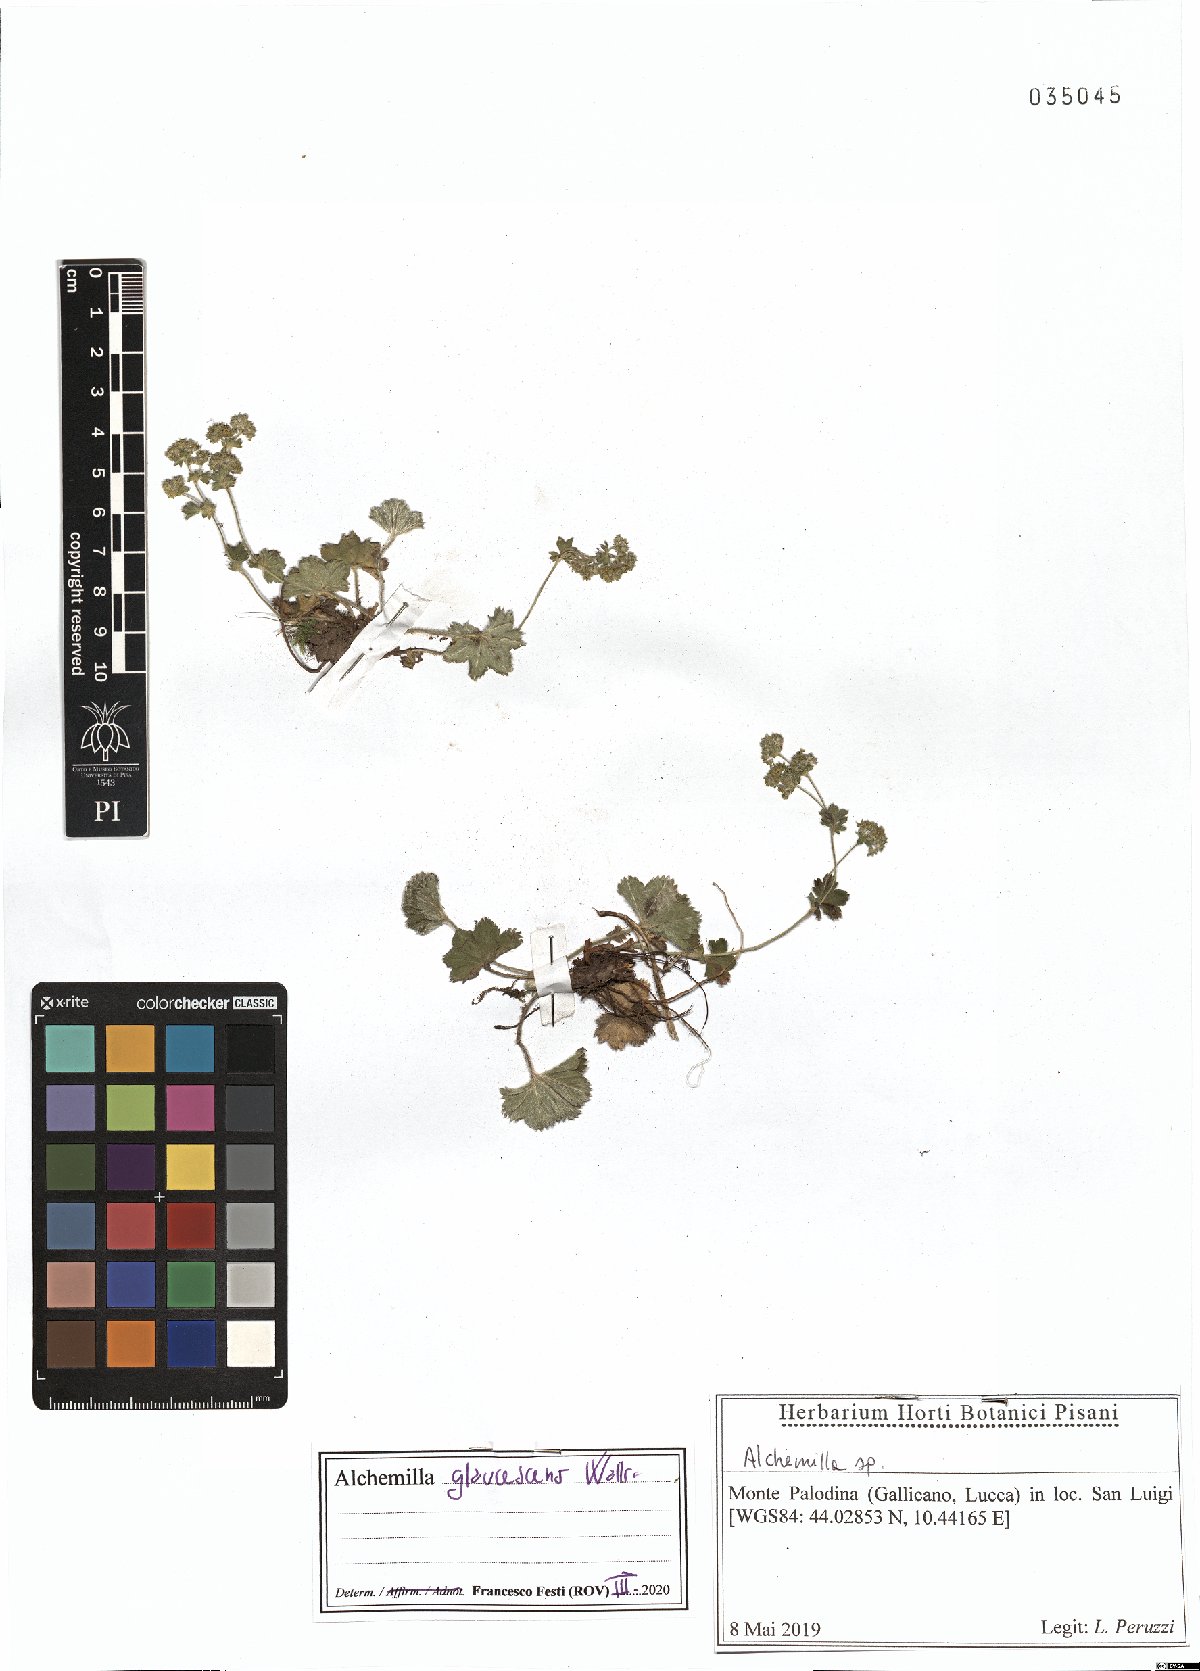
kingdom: Plantae
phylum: Tracheophyta
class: Magnoliopsida
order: Rosales
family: Rosaceae
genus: Alchemilla
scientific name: Alchemilla glaucescens
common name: Silky lady's mantle
